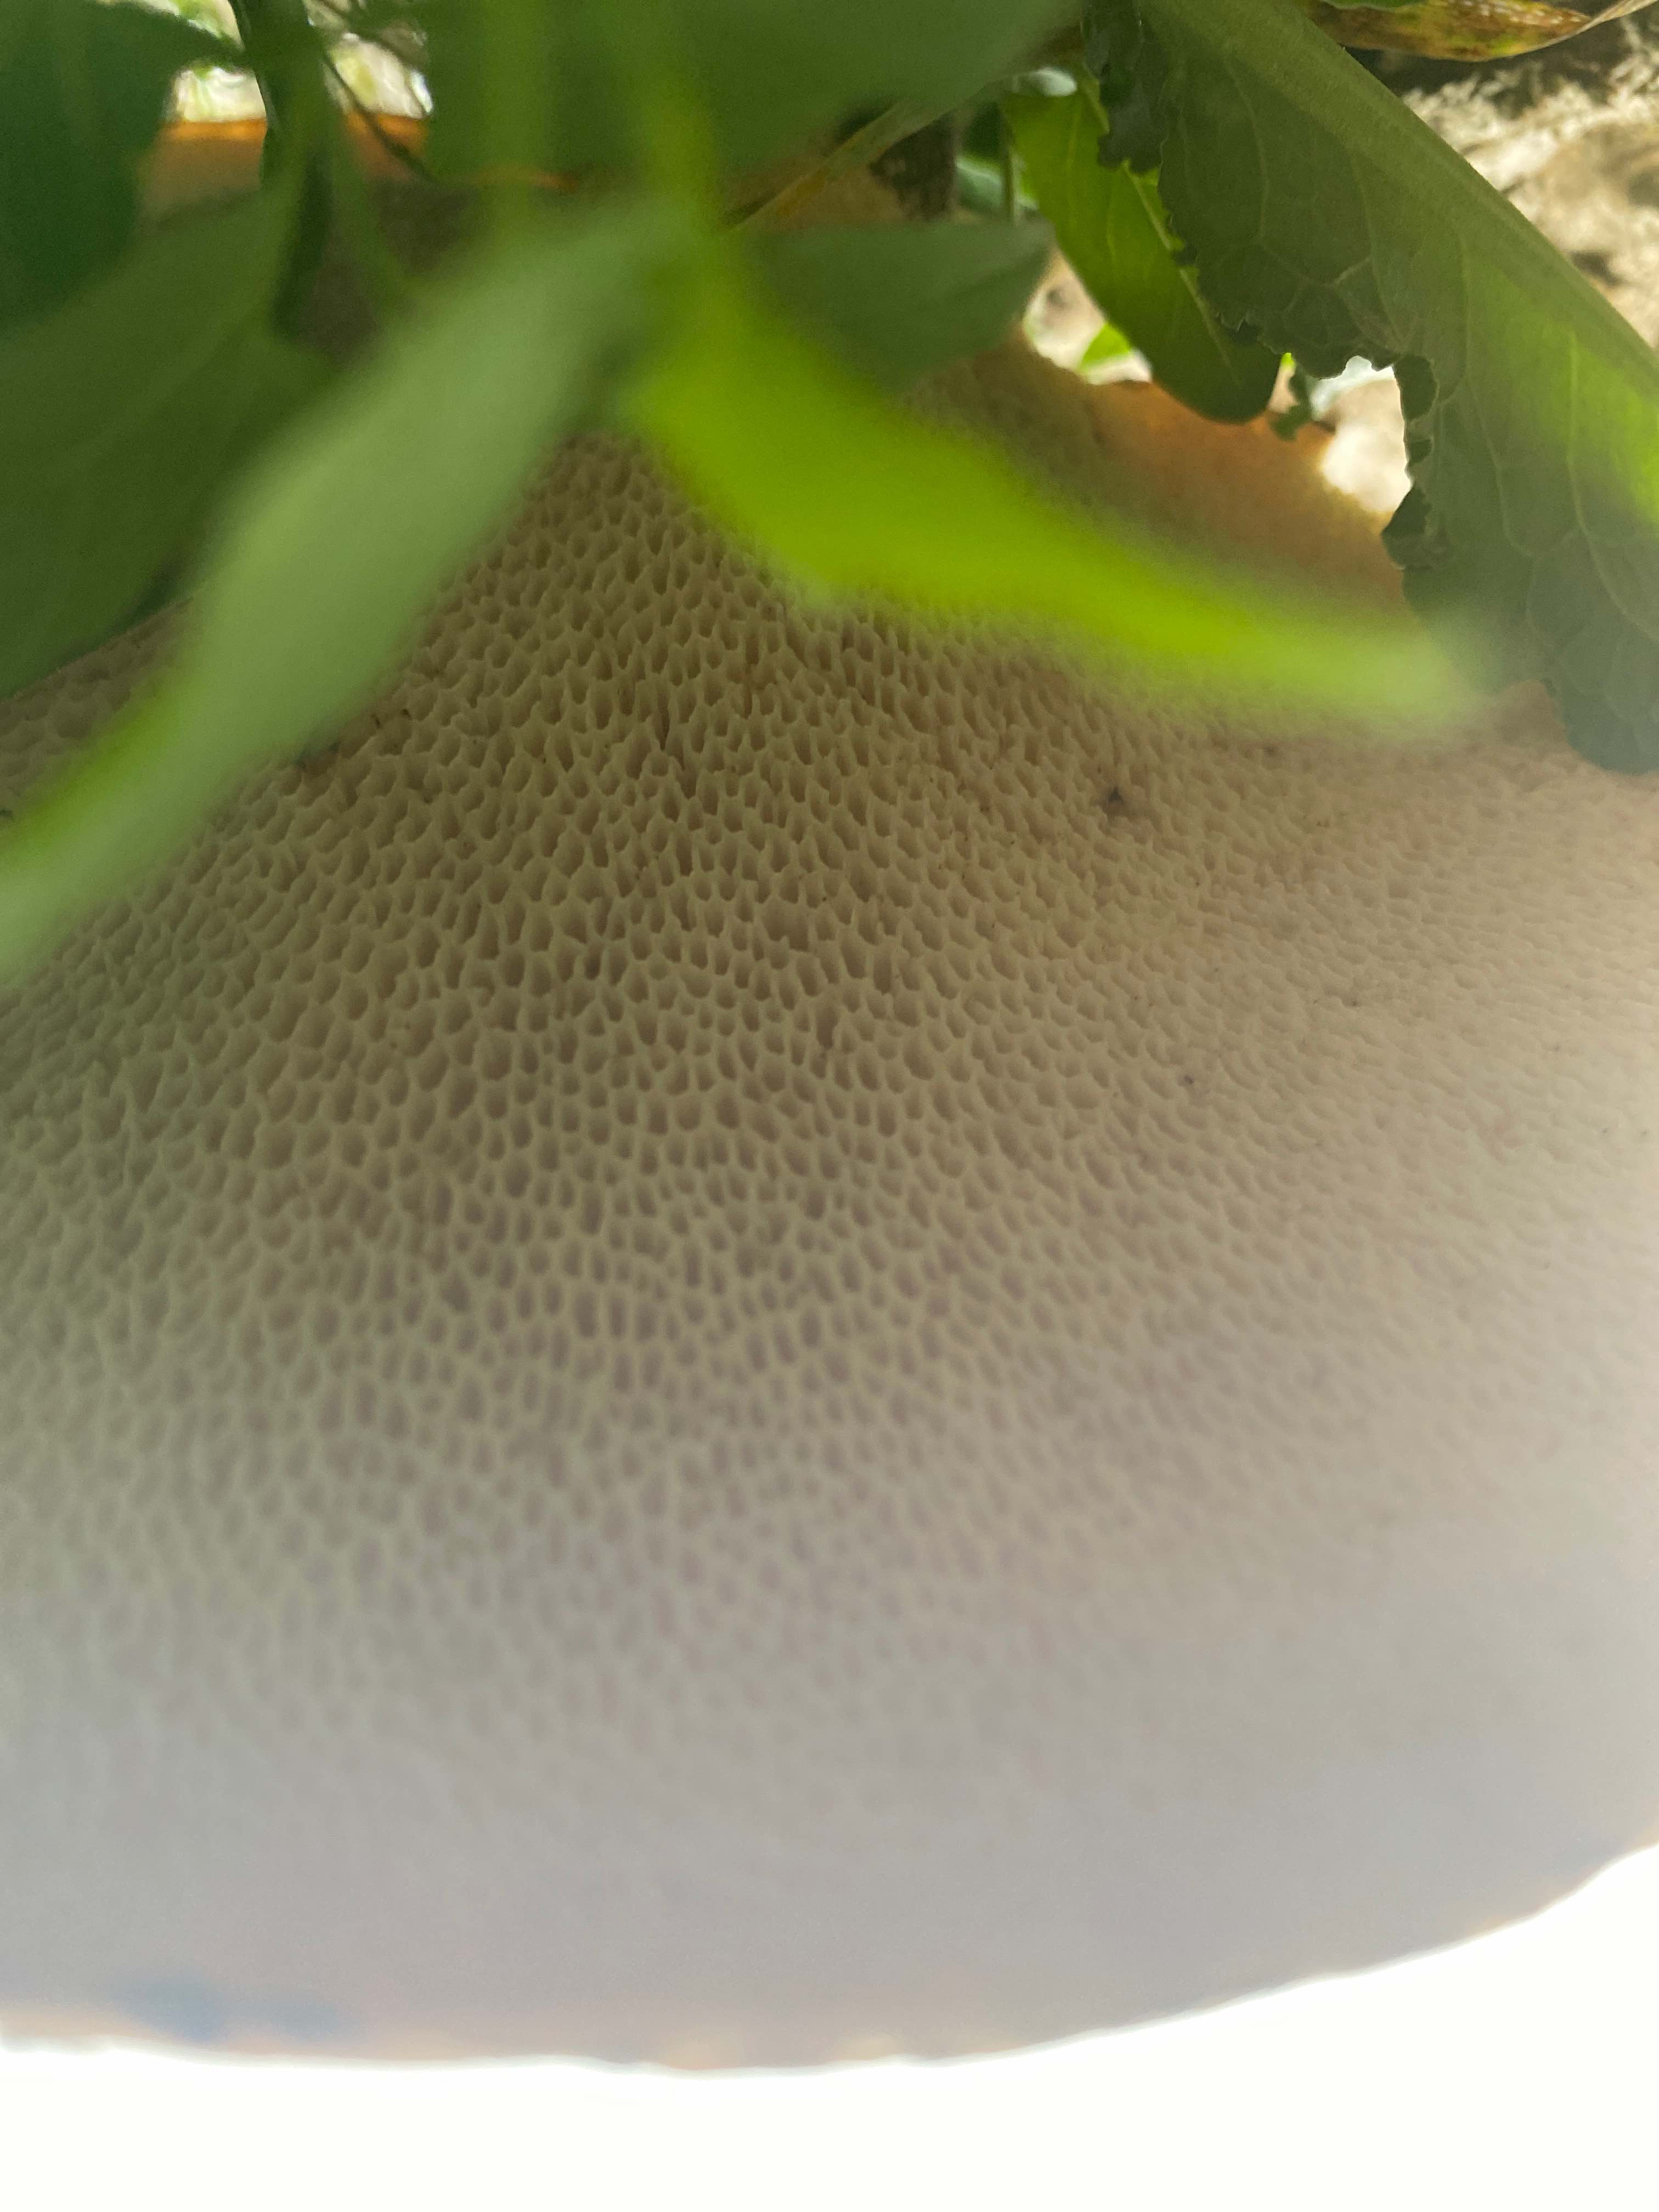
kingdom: Fungi
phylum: Basidiomycota
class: Agaricomycetes
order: Polyporales
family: Polyporaceae
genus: Cerioporus
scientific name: Cerioporus squamosus
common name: skællet stilkporesvamp
